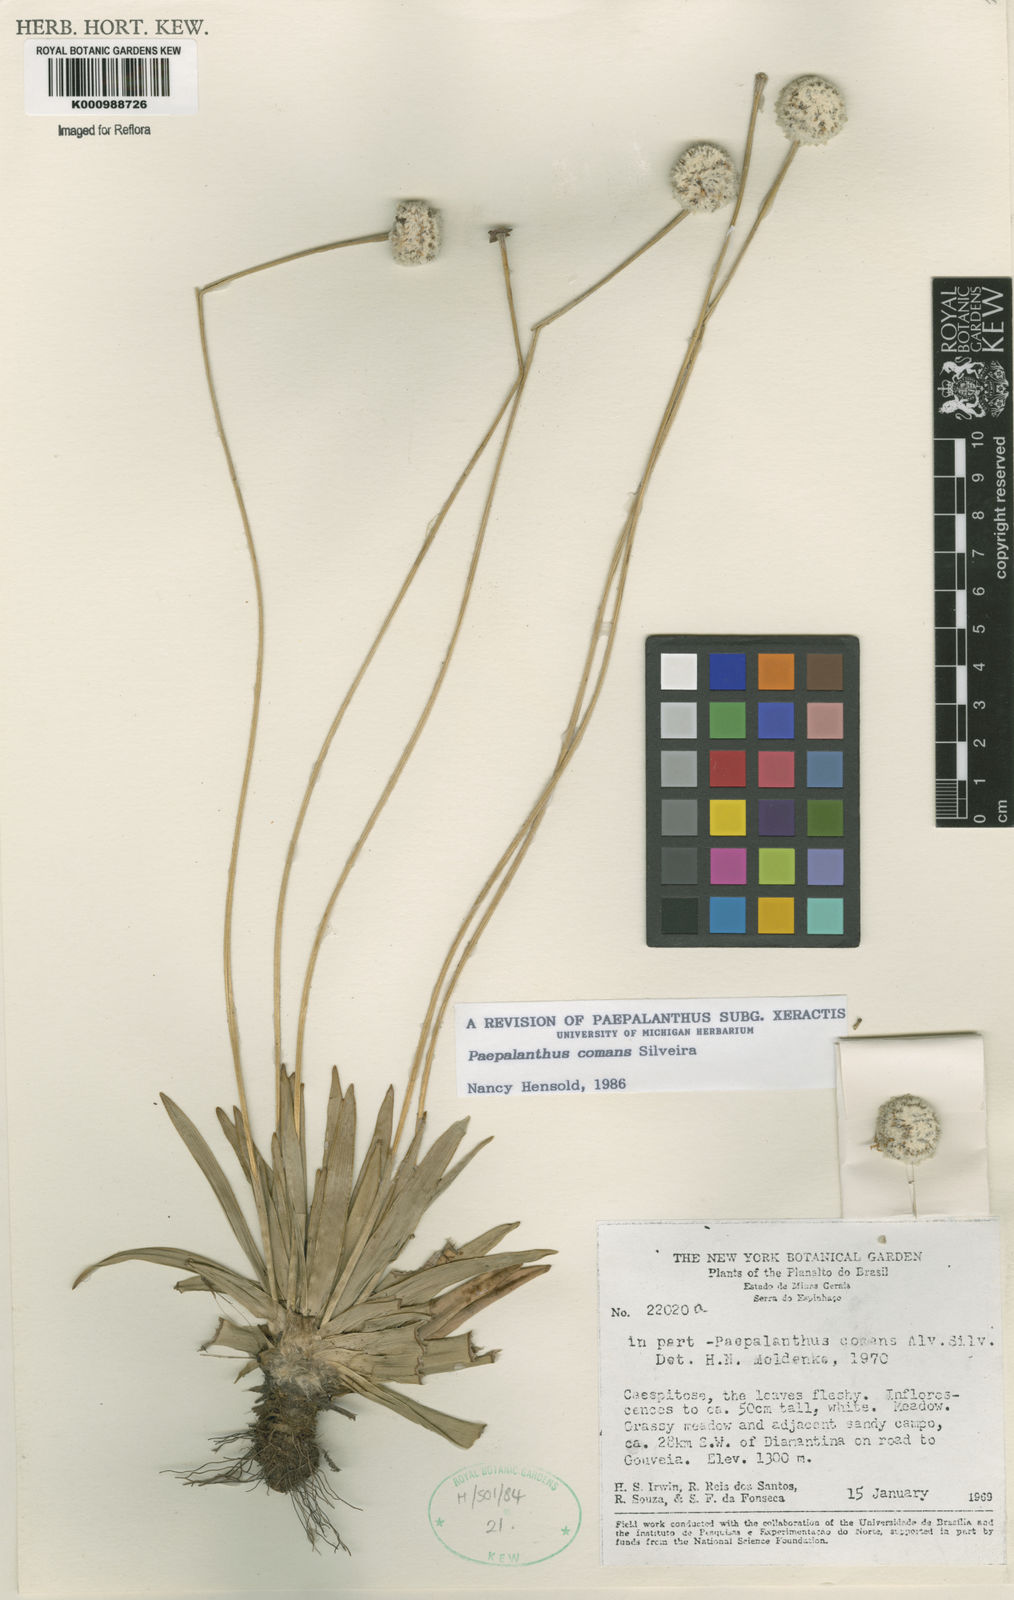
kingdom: Plantae
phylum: Tracheophyta
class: Liliopsida
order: Poales
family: Eriocaulaceae
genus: Paepalanthus
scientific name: Paepalanthus comans
